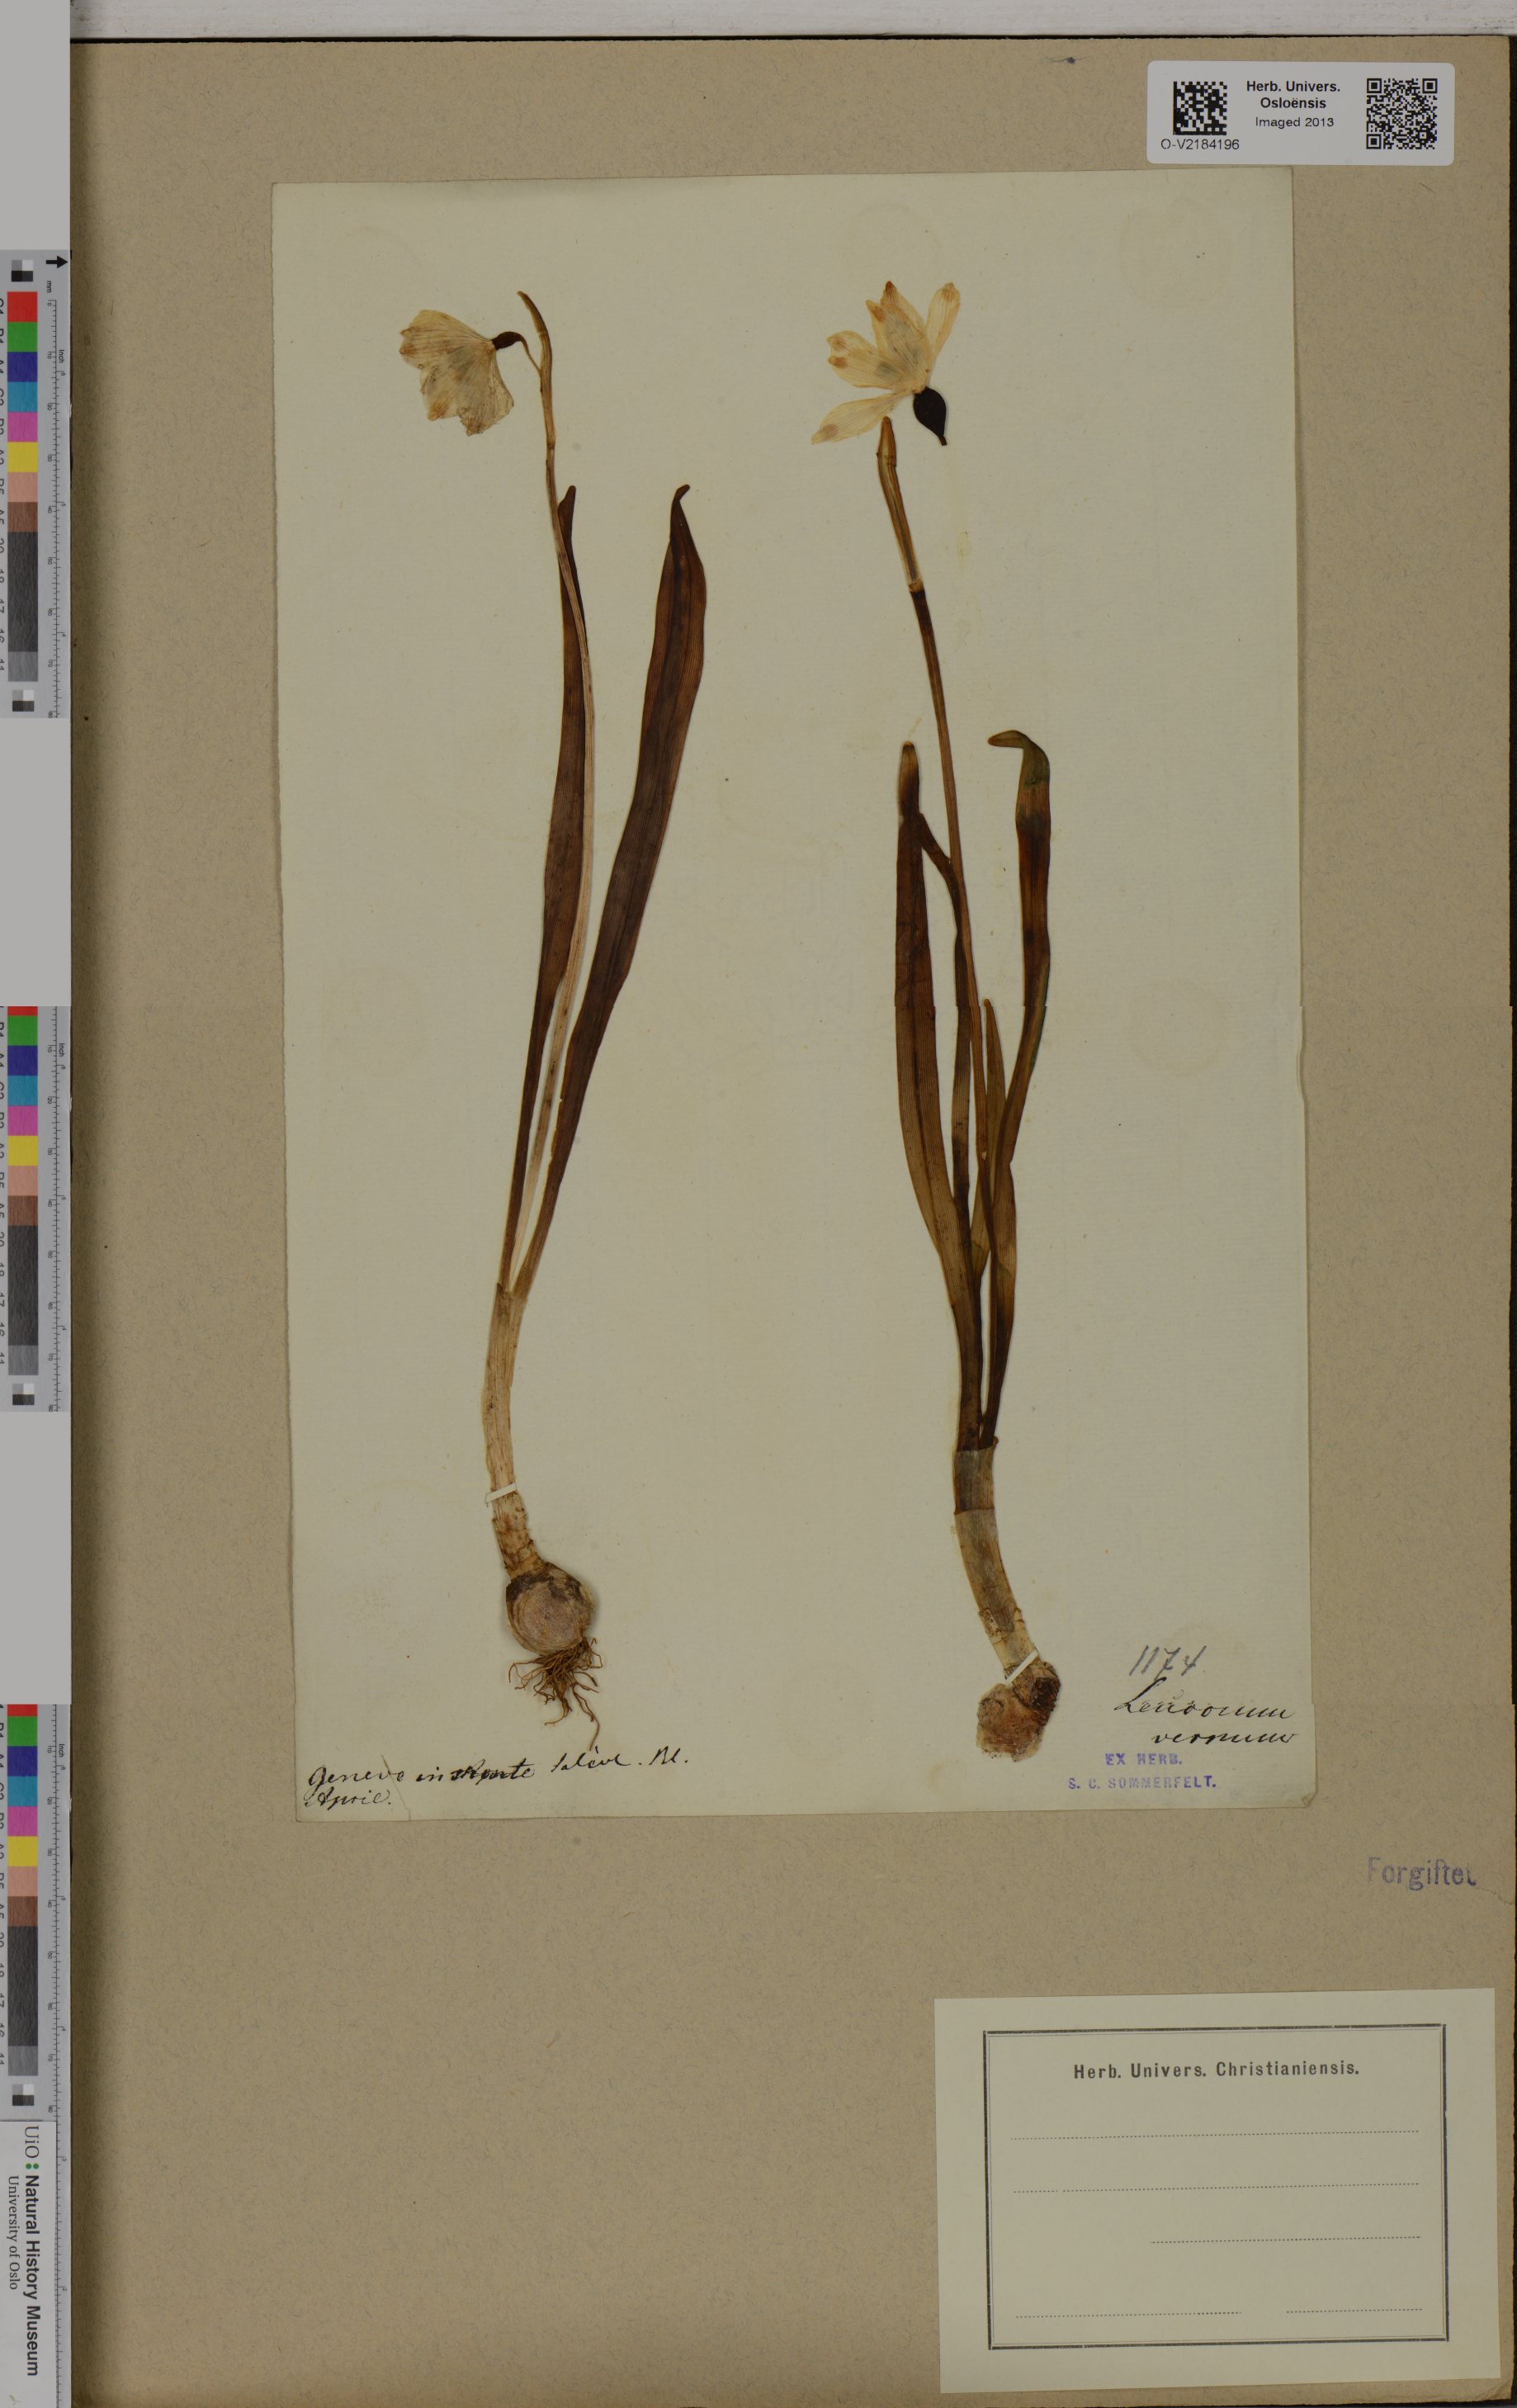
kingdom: Plantae
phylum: Tracheophyta
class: Liliopsida
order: Asparagales
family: Amaryllidaceae
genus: Leucojum
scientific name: Leucojum vernum
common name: Spring snowflake
